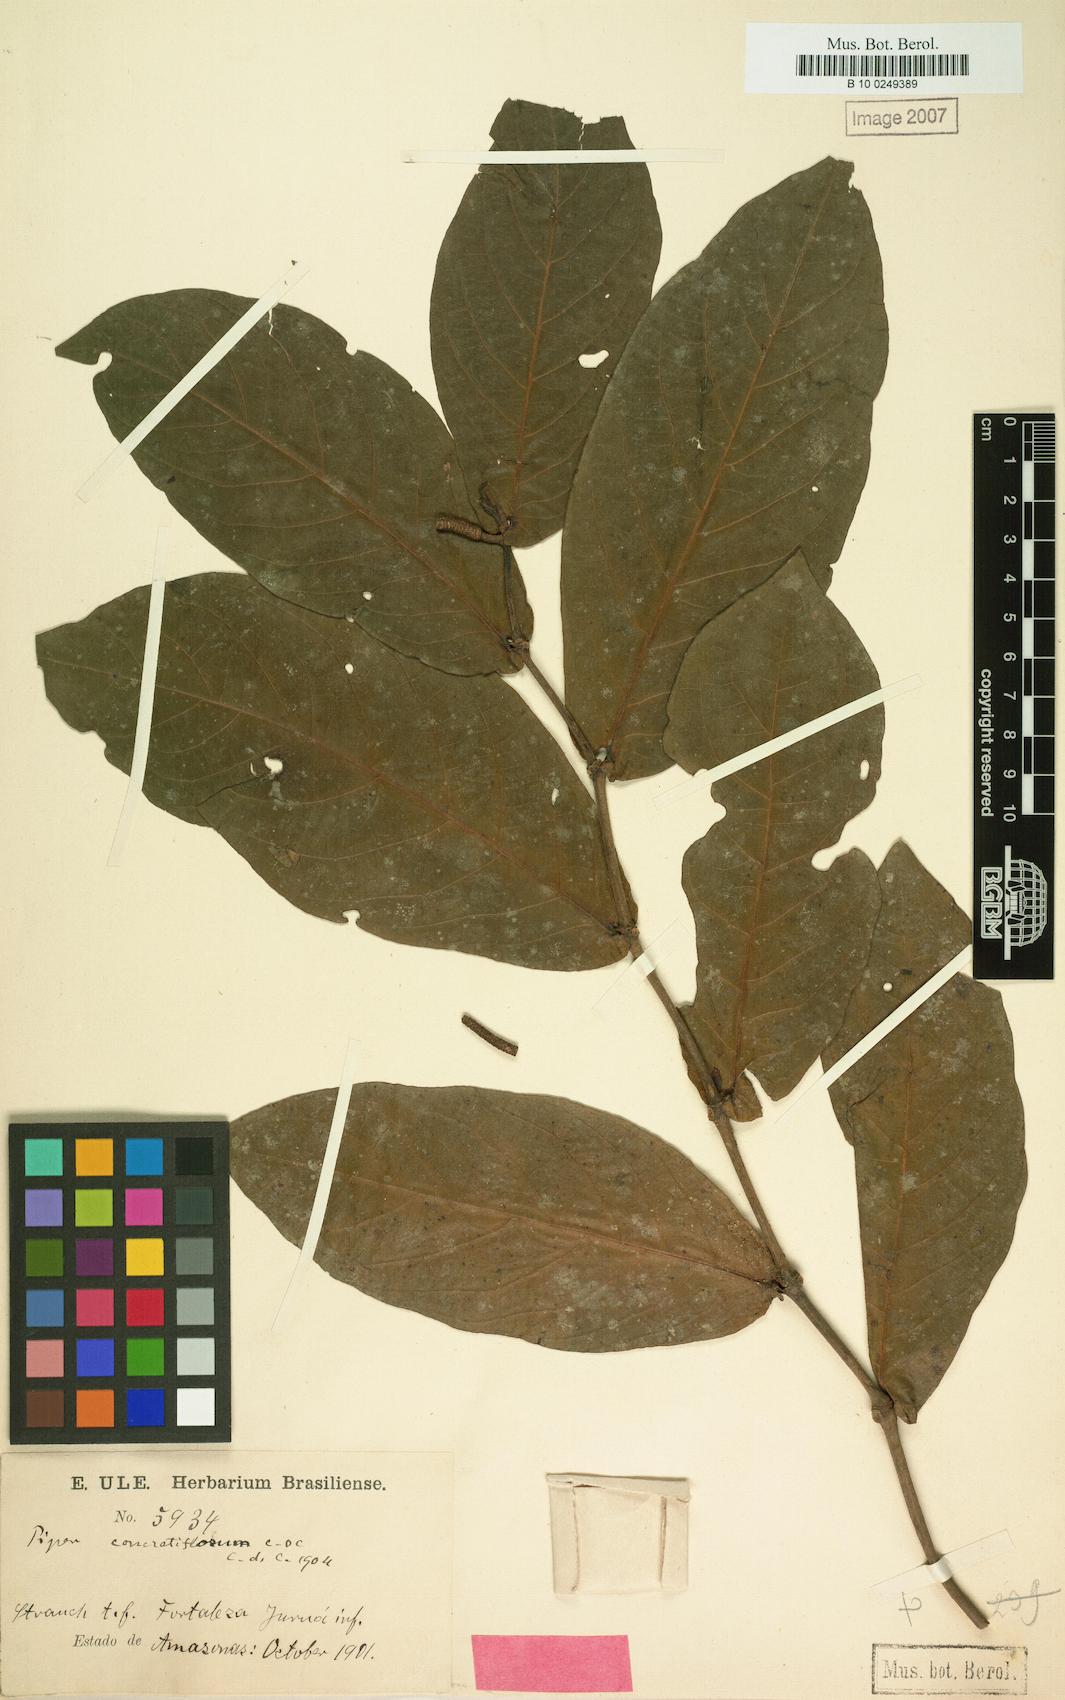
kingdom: Plantae
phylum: Tracheophyta
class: Magnoliopsida
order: Piperales
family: Piperaceae
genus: Piper
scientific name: Piper concretiflorum
